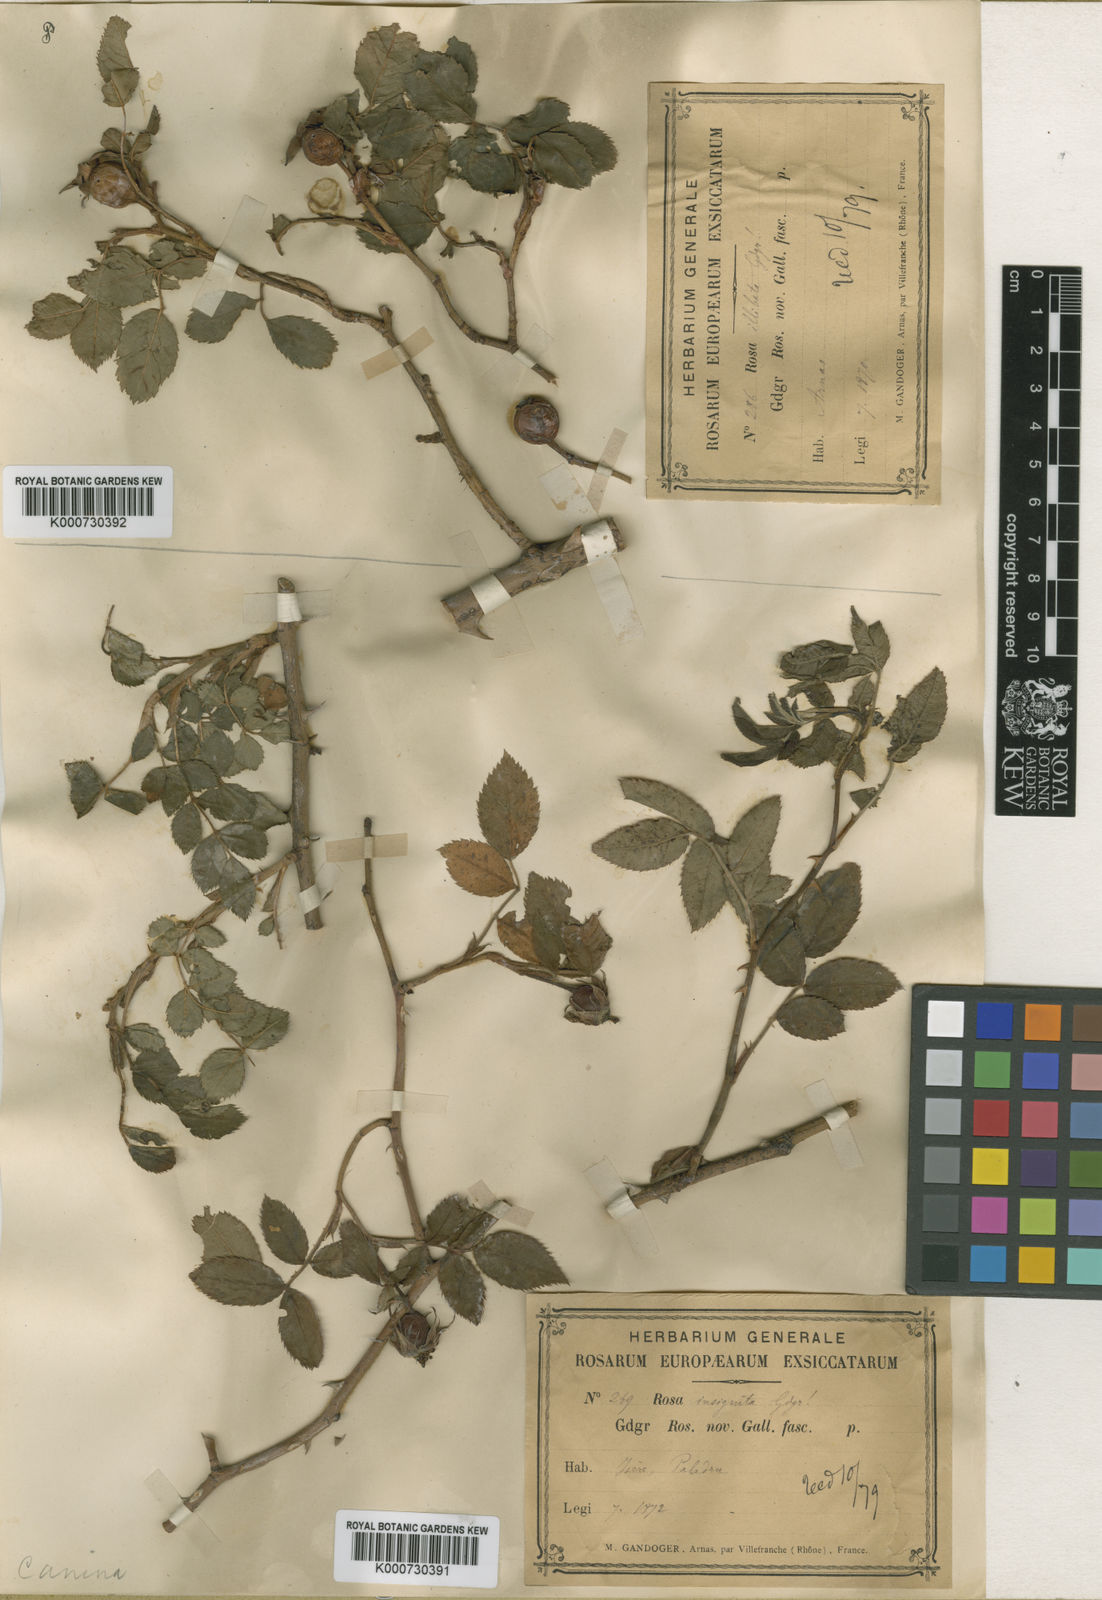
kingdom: Plantae
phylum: Tracheophyta
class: Magnoliopsida
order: Rosales
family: Rosaceae
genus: Rosa
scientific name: Rosa canina
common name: Dog rose
